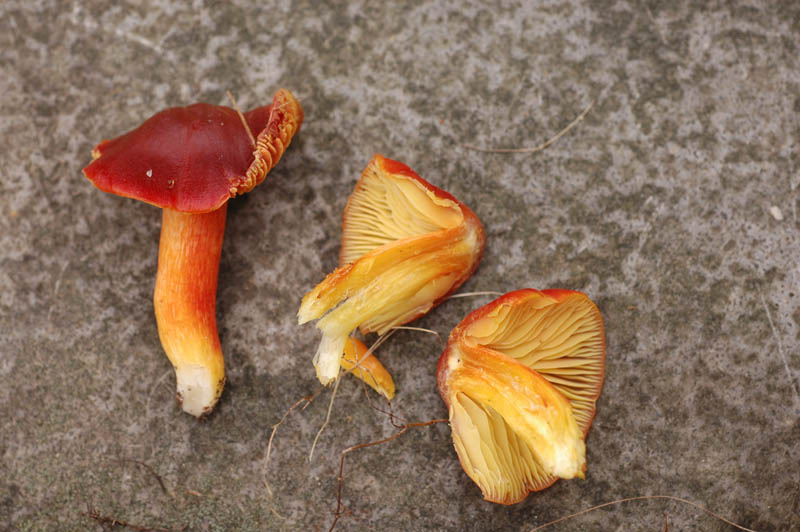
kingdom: Fungi
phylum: Basidiomycota
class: Agaricomycetes
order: Agaricales
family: Hygrophoraceae
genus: Hygrocybe
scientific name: Hygrocybe punicea
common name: skarlagen-vokshat
